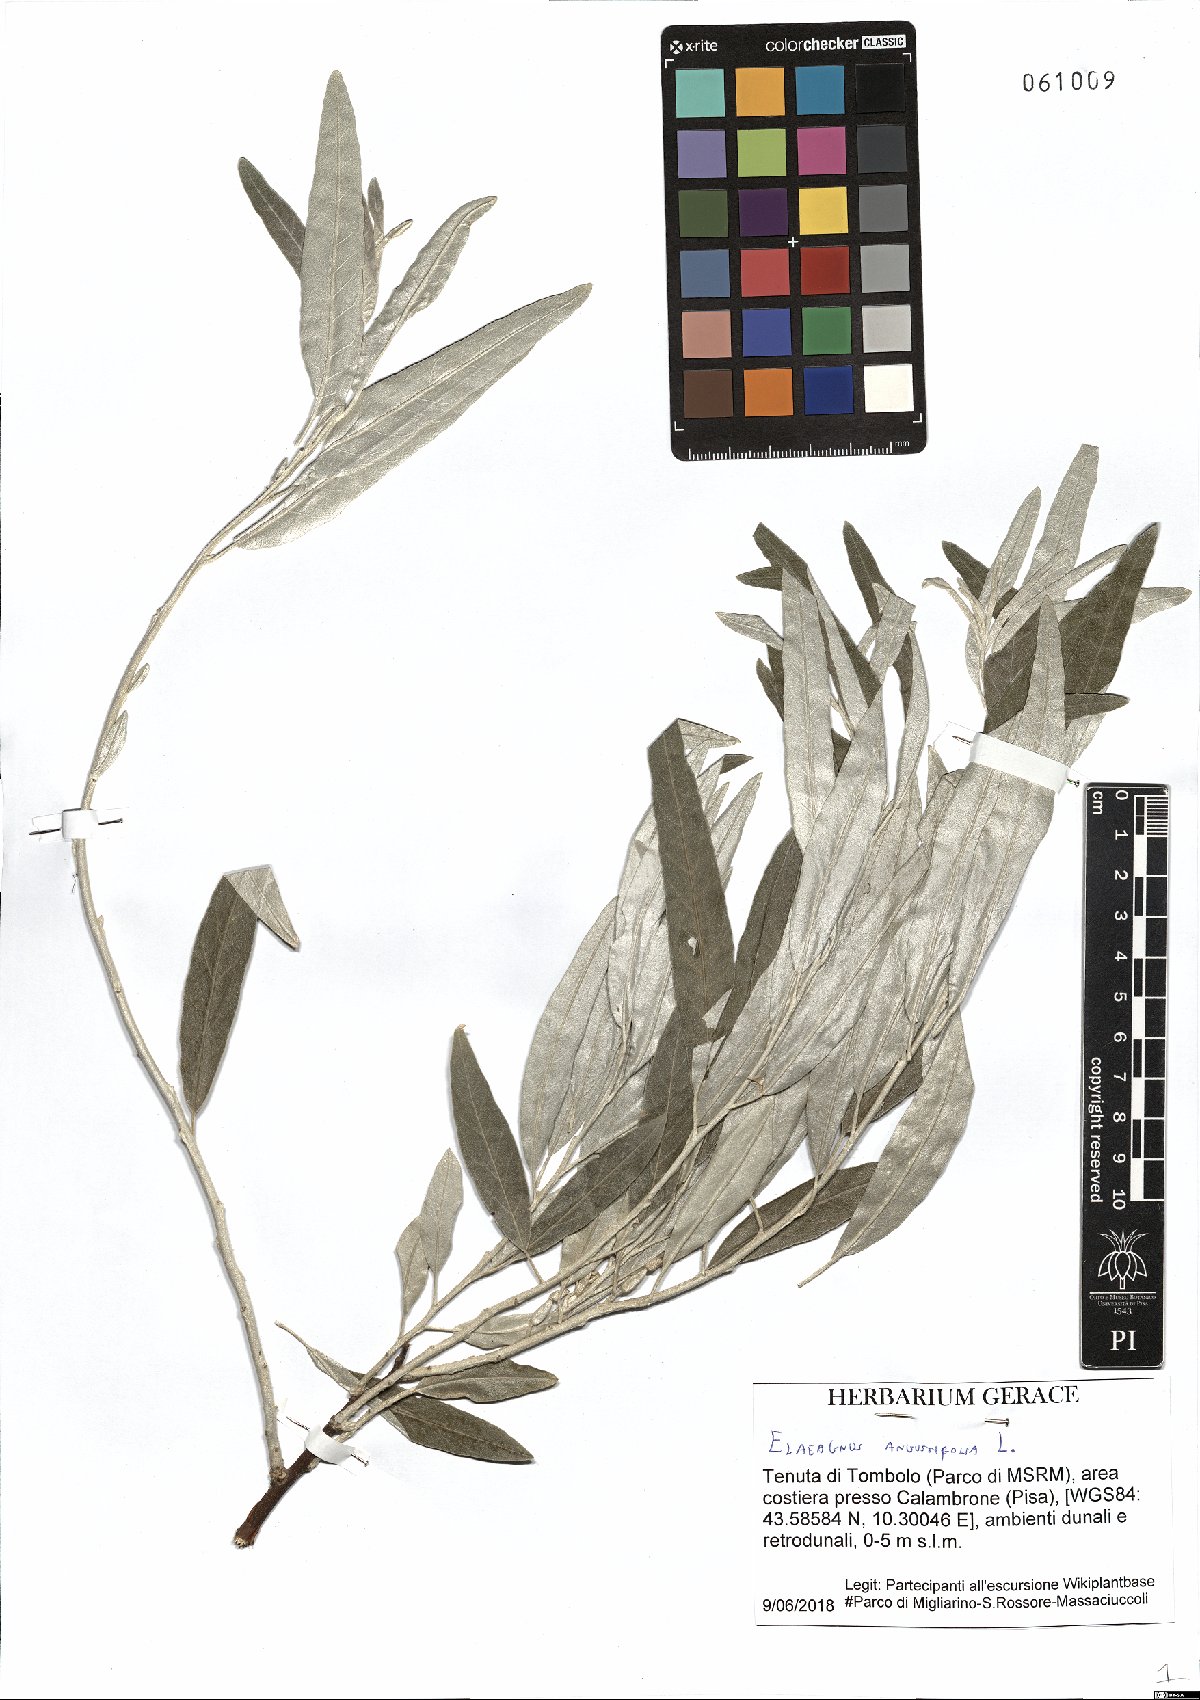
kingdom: Plantae
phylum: Tracheophyta
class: Magnoliopsida
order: Rosales
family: Elaeagnaceae
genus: Elaeagnus
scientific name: Elaeagnus angustifolia
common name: Russian olive
